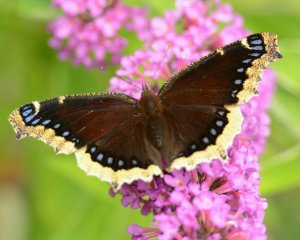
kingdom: Animalia
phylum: Arthropoda
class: Insecta
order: Lepidoptera
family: Nymphalidae
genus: Nymphalis
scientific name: Nymphalis antiopa
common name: Mourning Cloak
